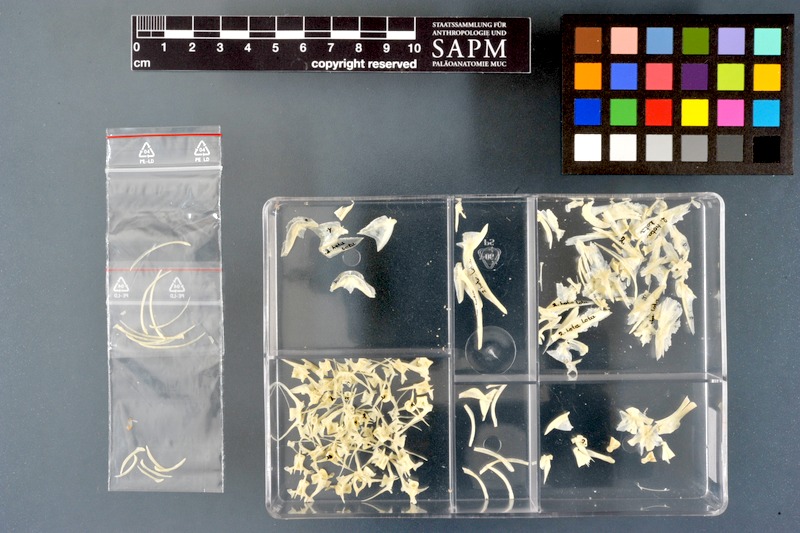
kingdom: Animalia
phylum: Chordata
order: Gadiformes
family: Lotidae
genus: Lota
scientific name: Lota lota
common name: Burbot
